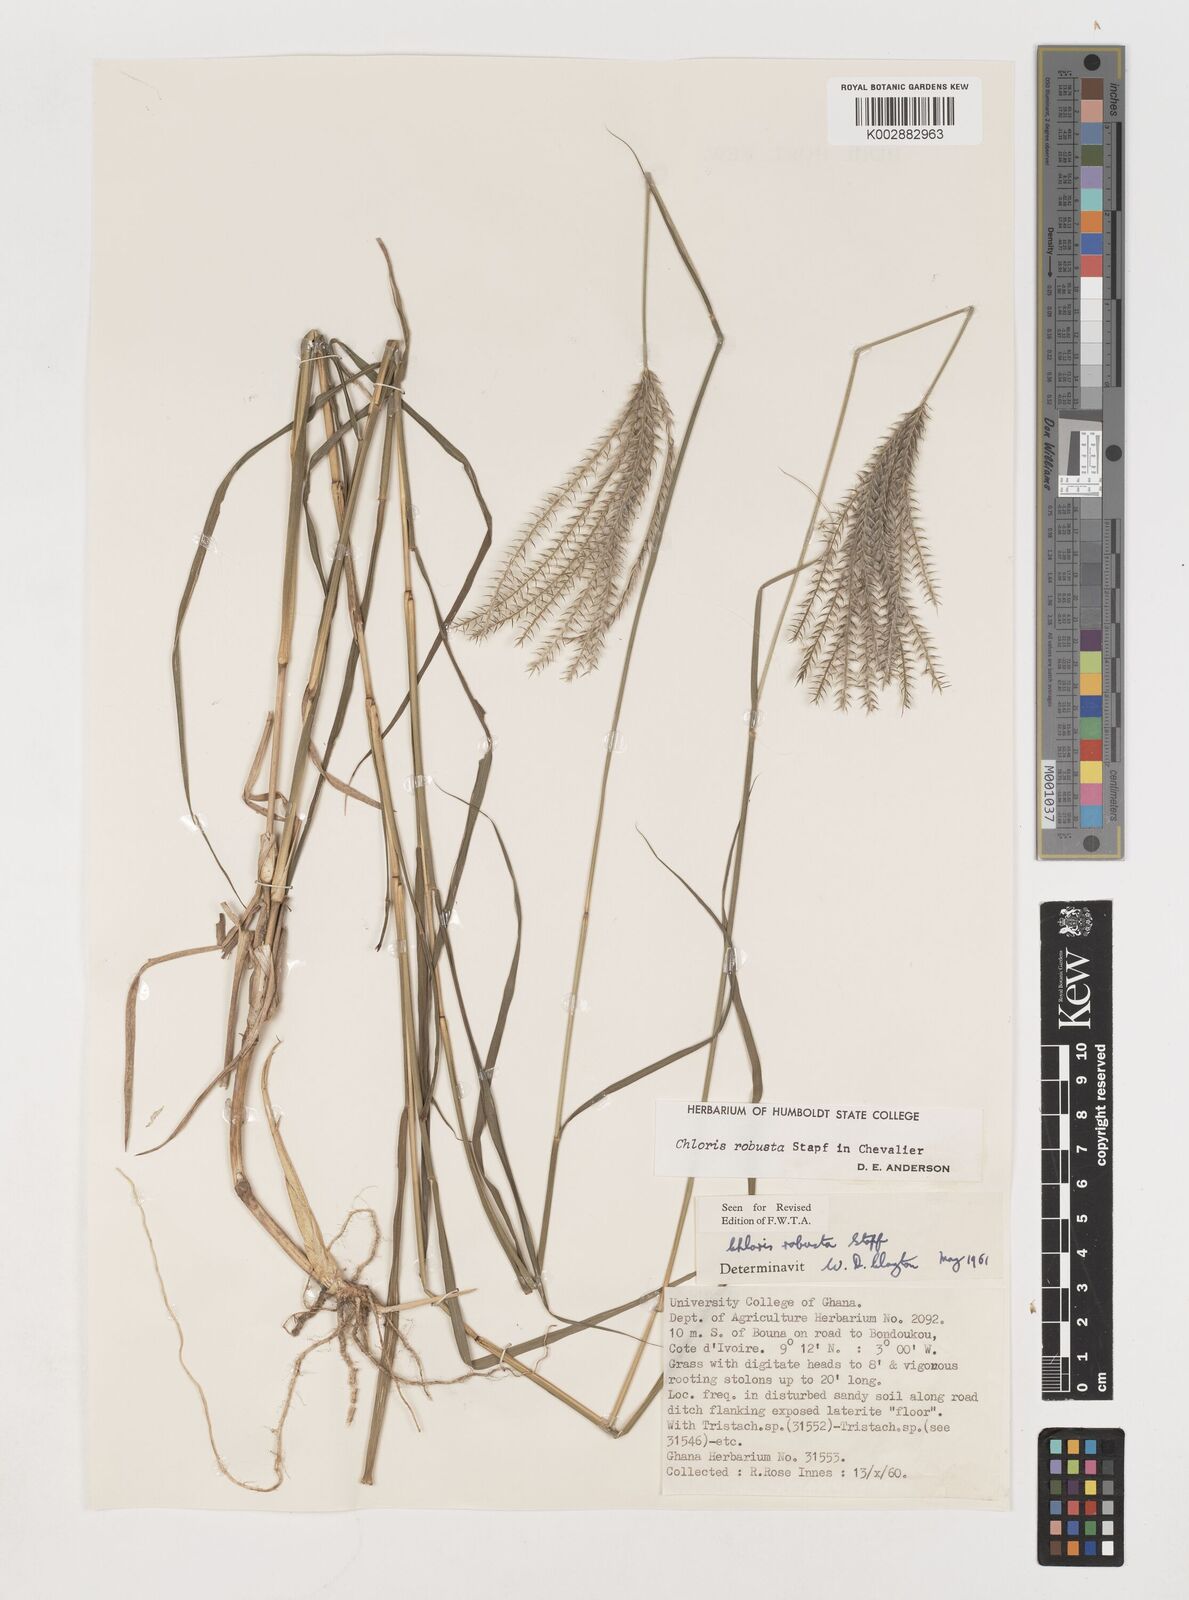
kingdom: Plantae
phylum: Tracheophyta
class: Liliopsida
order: Poales
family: Poaceae
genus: Chloris
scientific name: Chloris robusta
